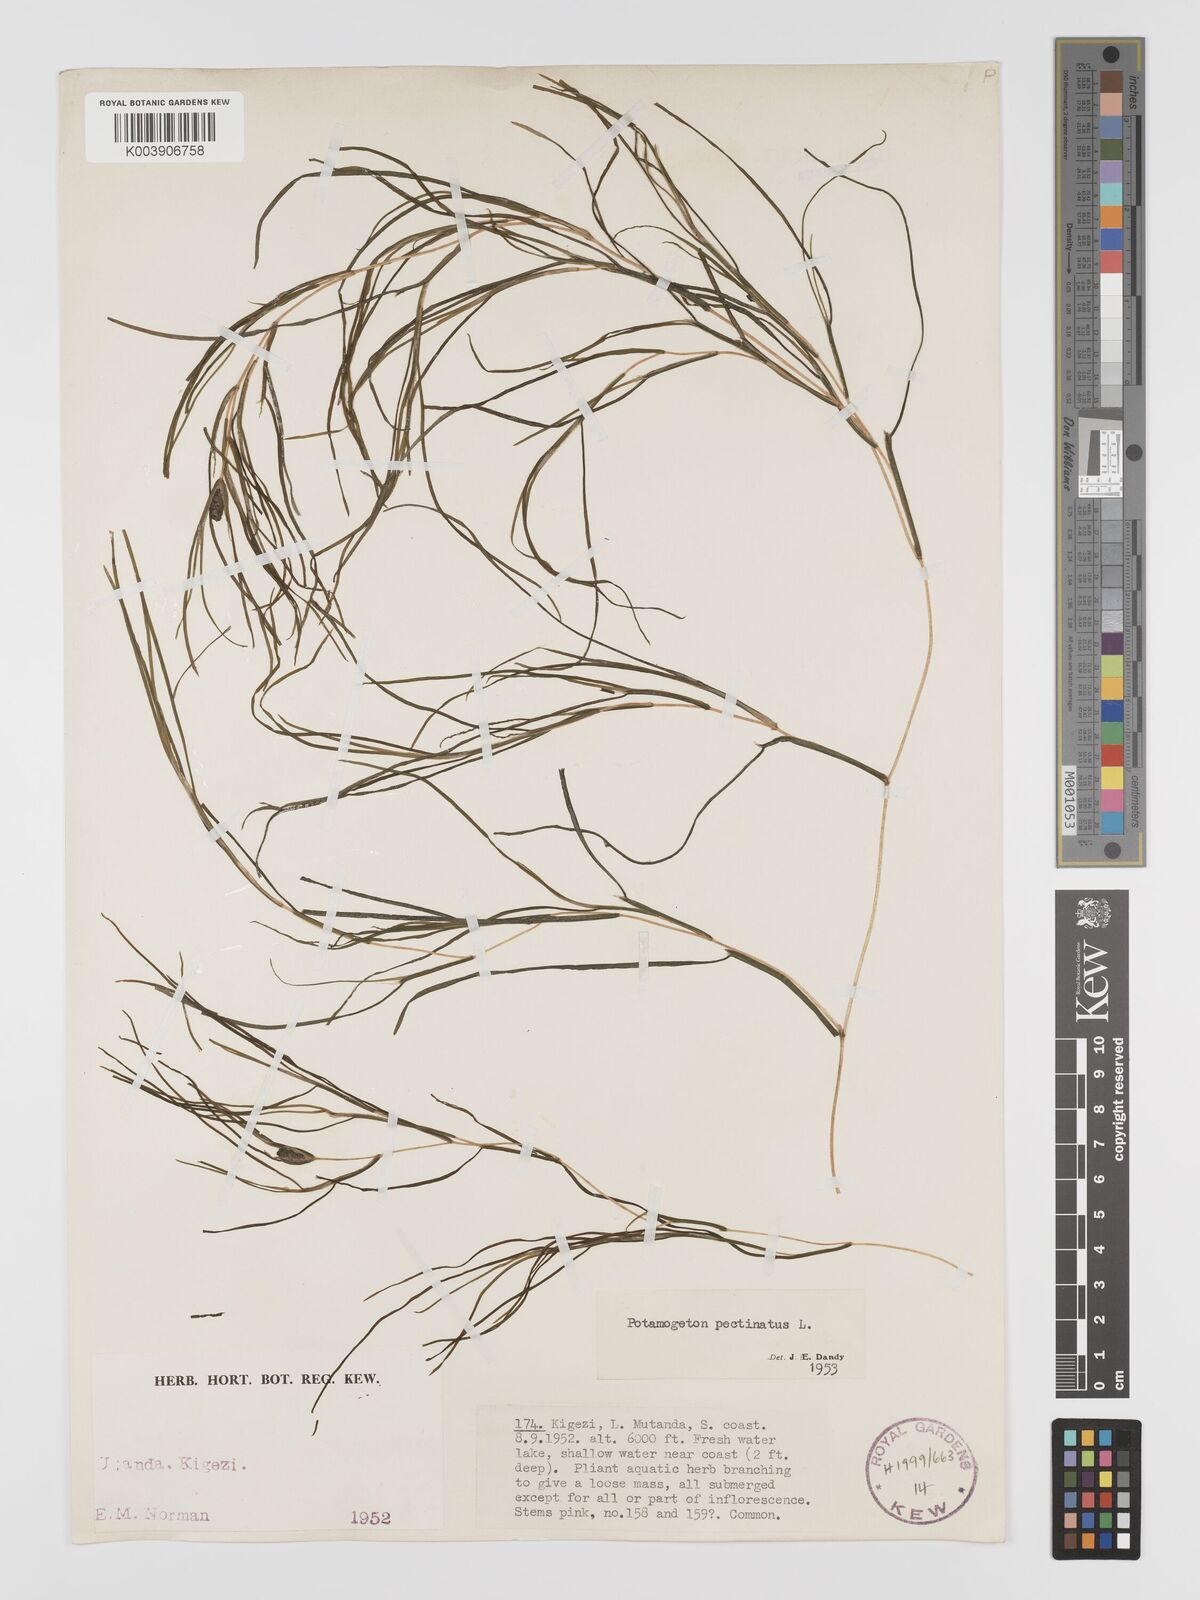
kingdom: Plantae
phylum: Tracheophyta
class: Liliopsida
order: Alismatales
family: Potamogetonaceae
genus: Stuckenia
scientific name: Stuckenia pectinata
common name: Sago pondweed
